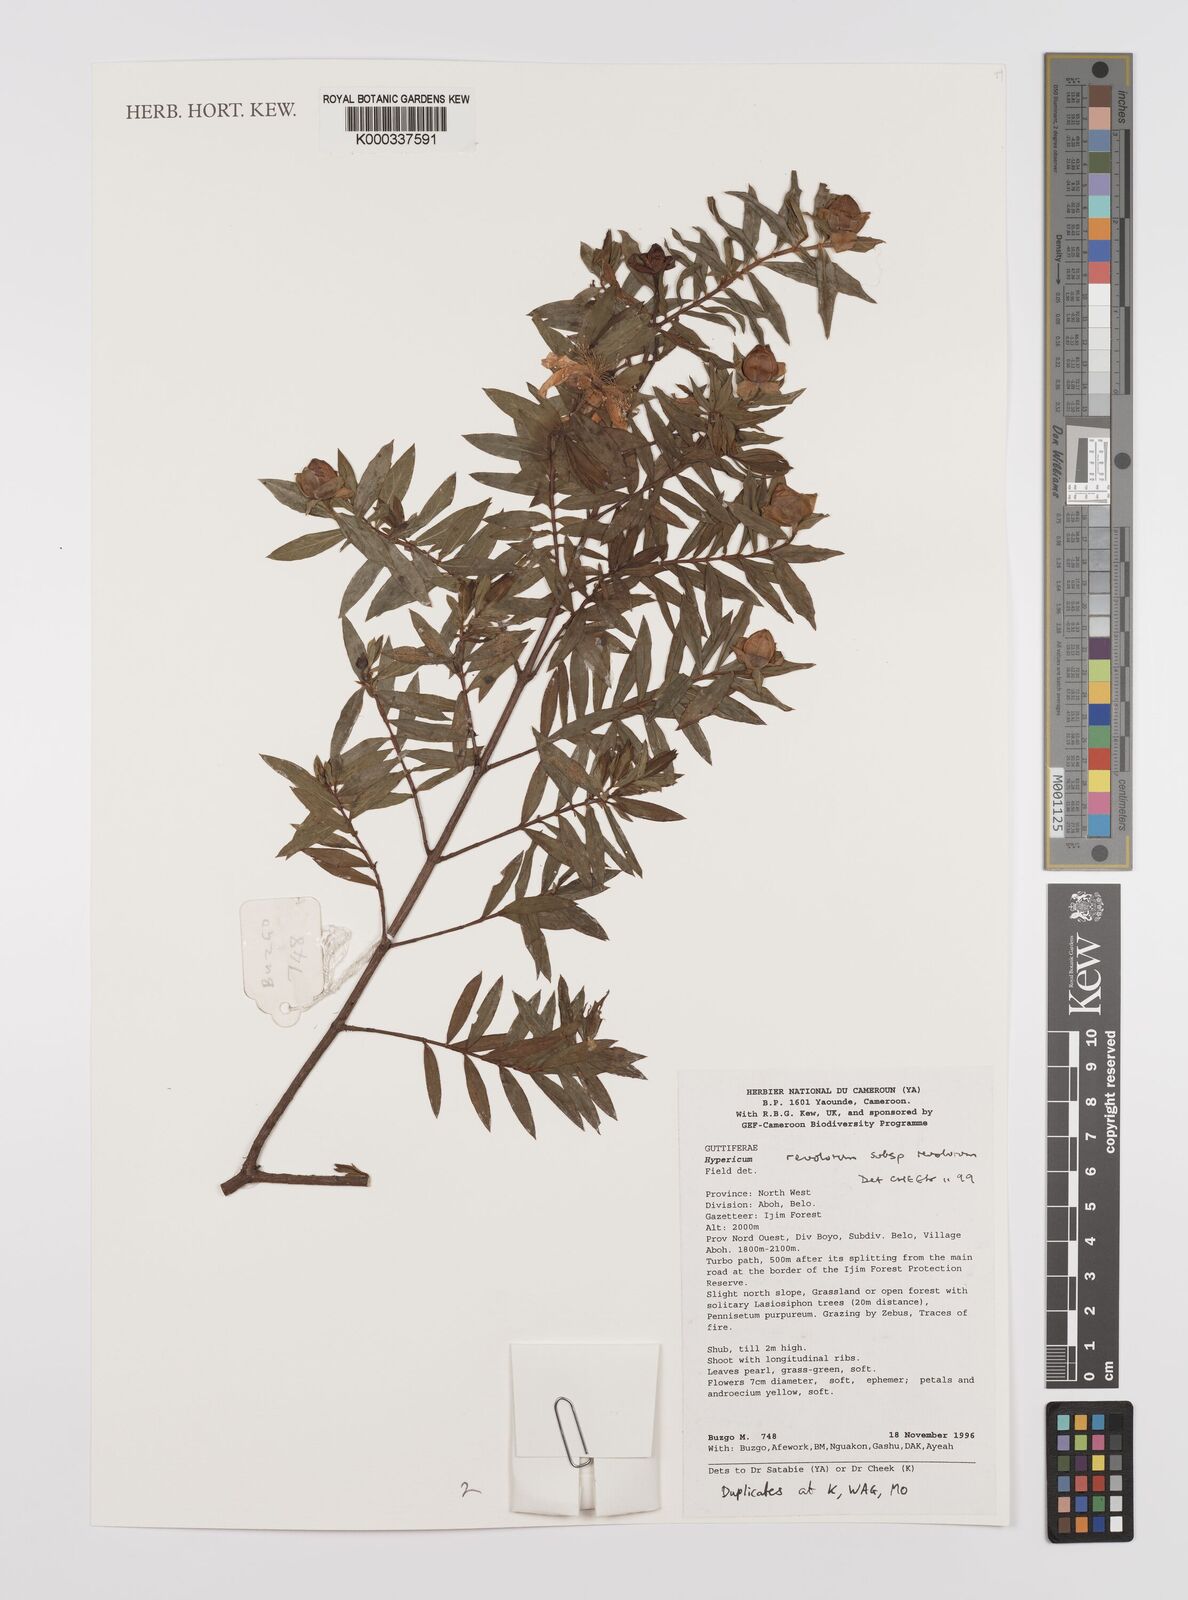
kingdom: Plantae
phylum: Tracheophyta
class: Magnoliopsida
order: Malpighiales
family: Hypericaceae
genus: Hypericum
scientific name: Hypericum revolutum
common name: Curry bush
